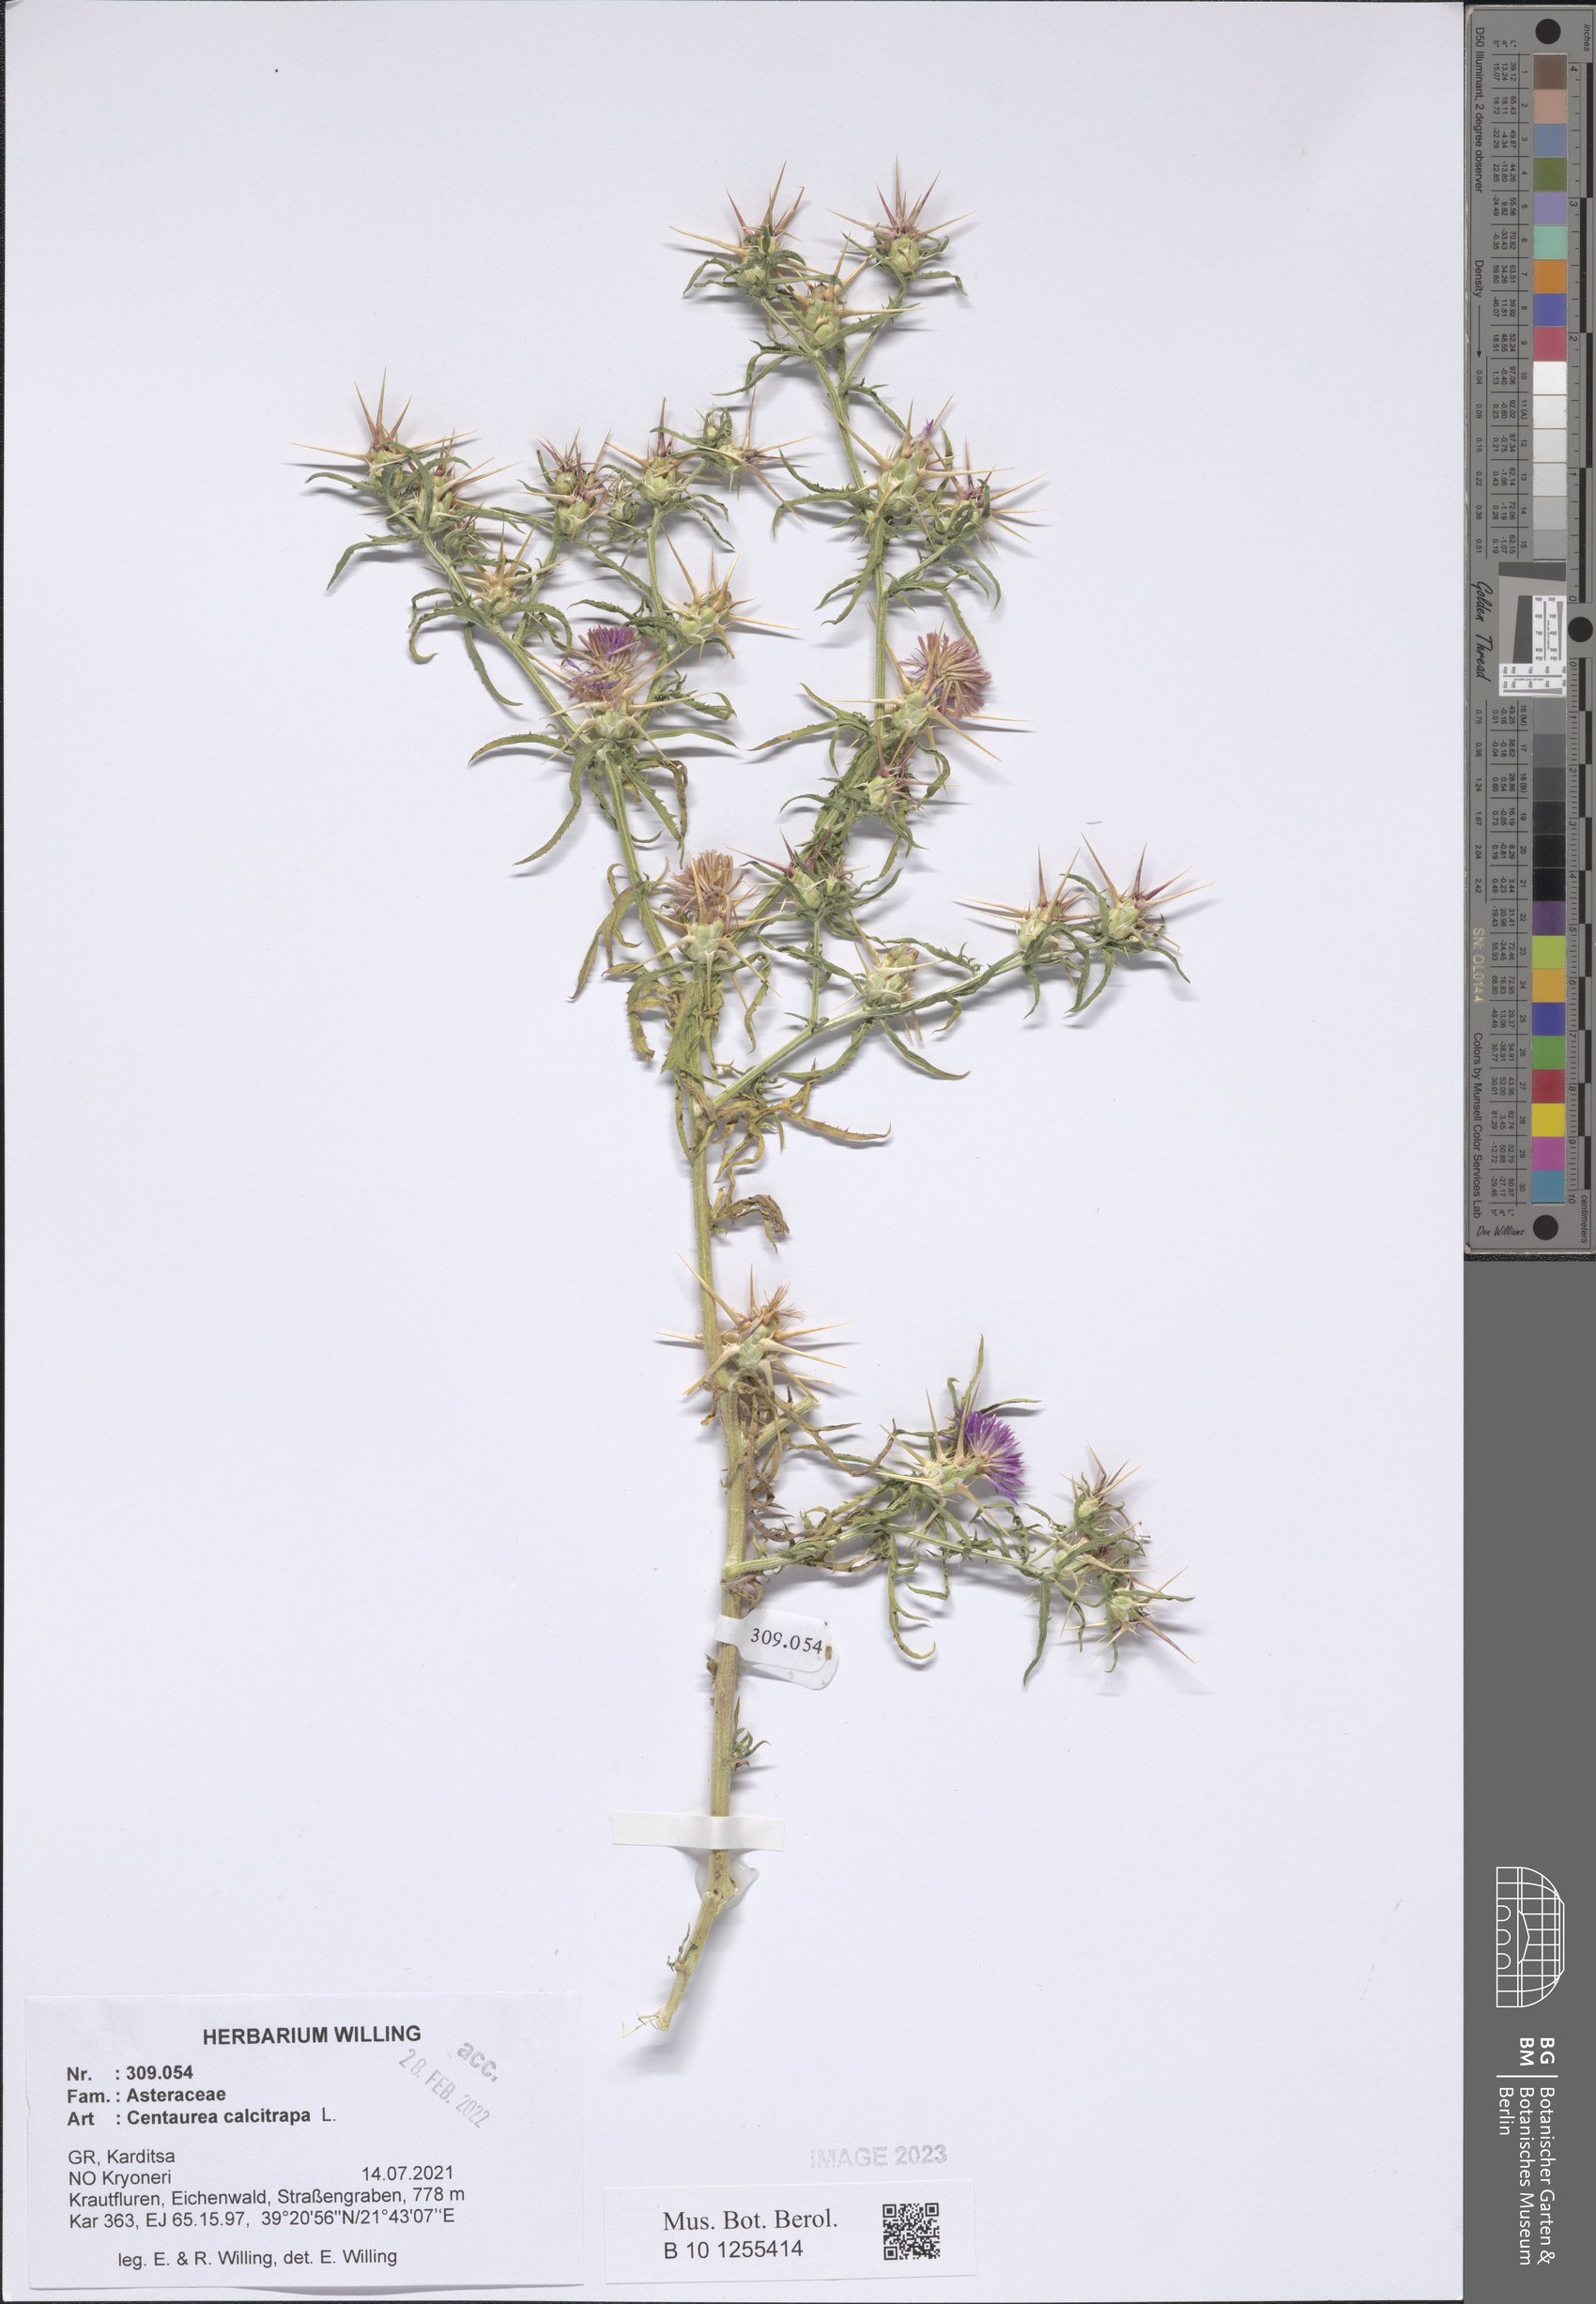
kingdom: Plantae
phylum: Tracheophyta
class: Magnoliopsida
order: Asterales
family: Asteraceae
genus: Centaurea
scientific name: Centaurea calcitrapa
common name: Red star-thistle
